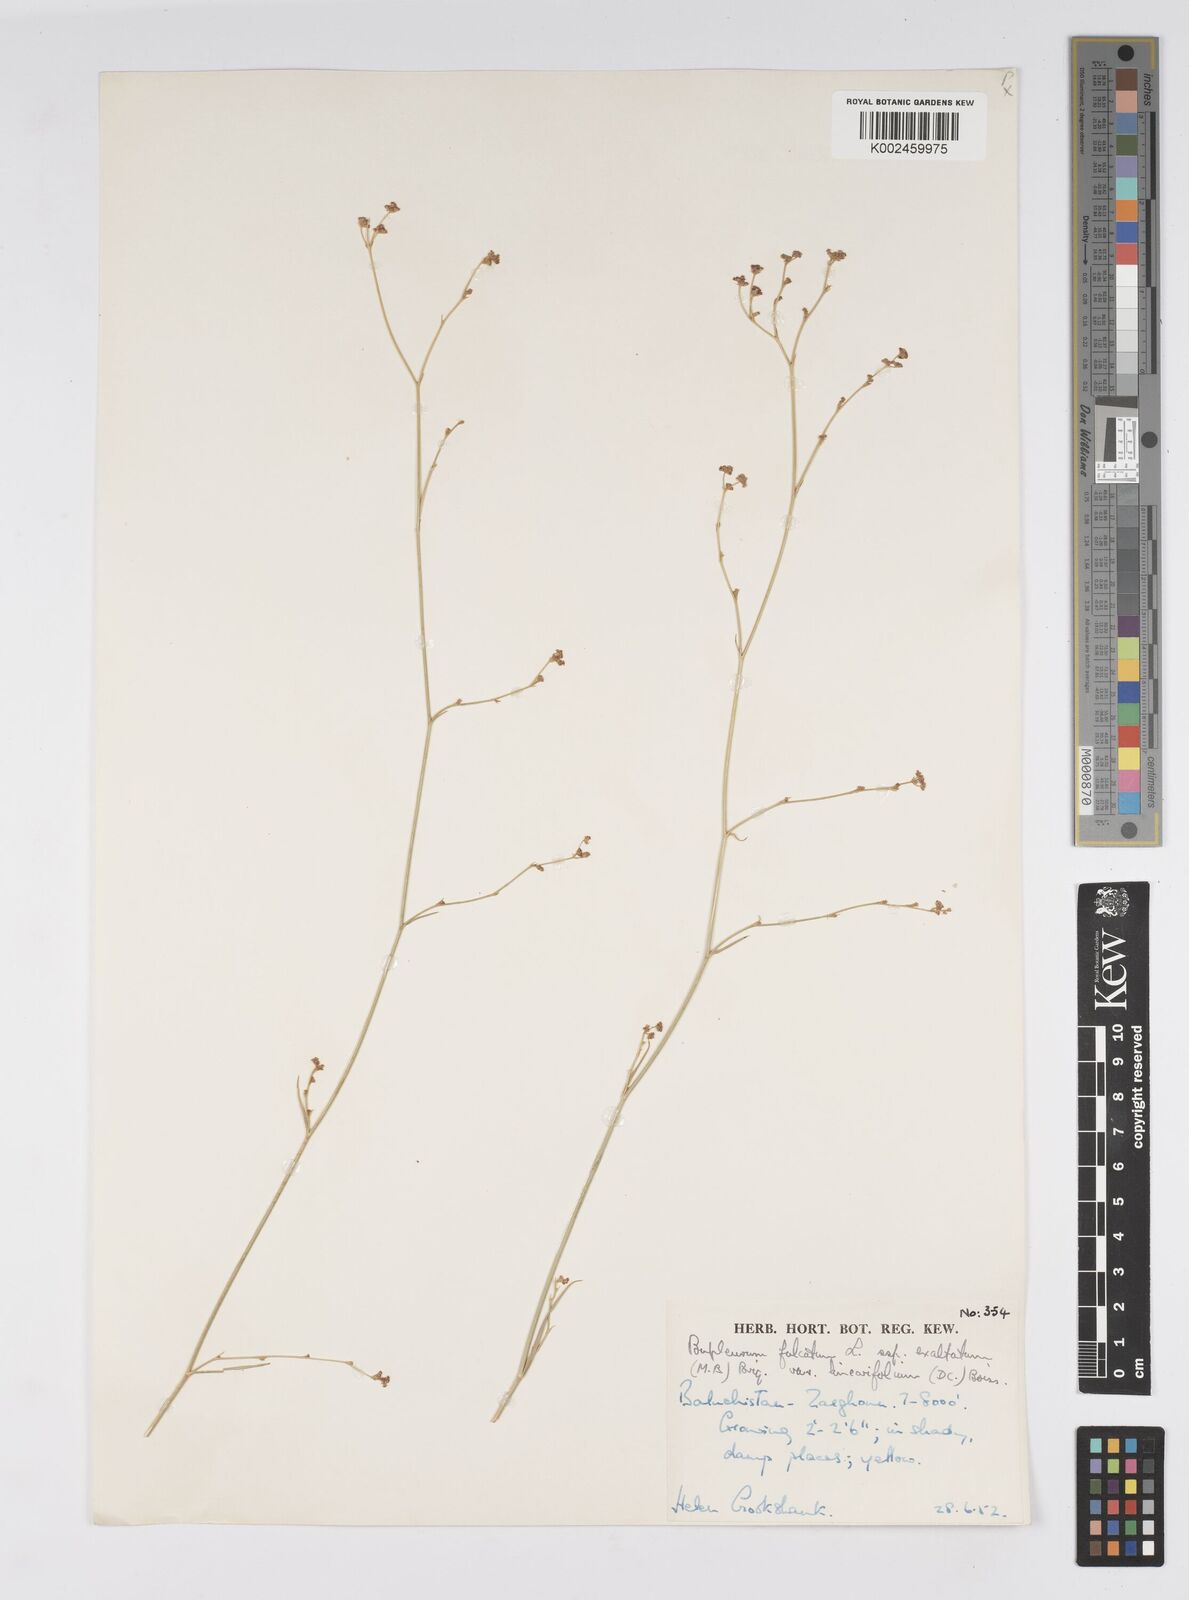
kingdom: Plantae
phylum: Tracheophyta
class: Magnoliopsida
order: Apiales
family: Apiaceae
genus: Bupleurum
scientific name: Bupleurum falcatum
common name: Sickle-leaved hare's-ear
